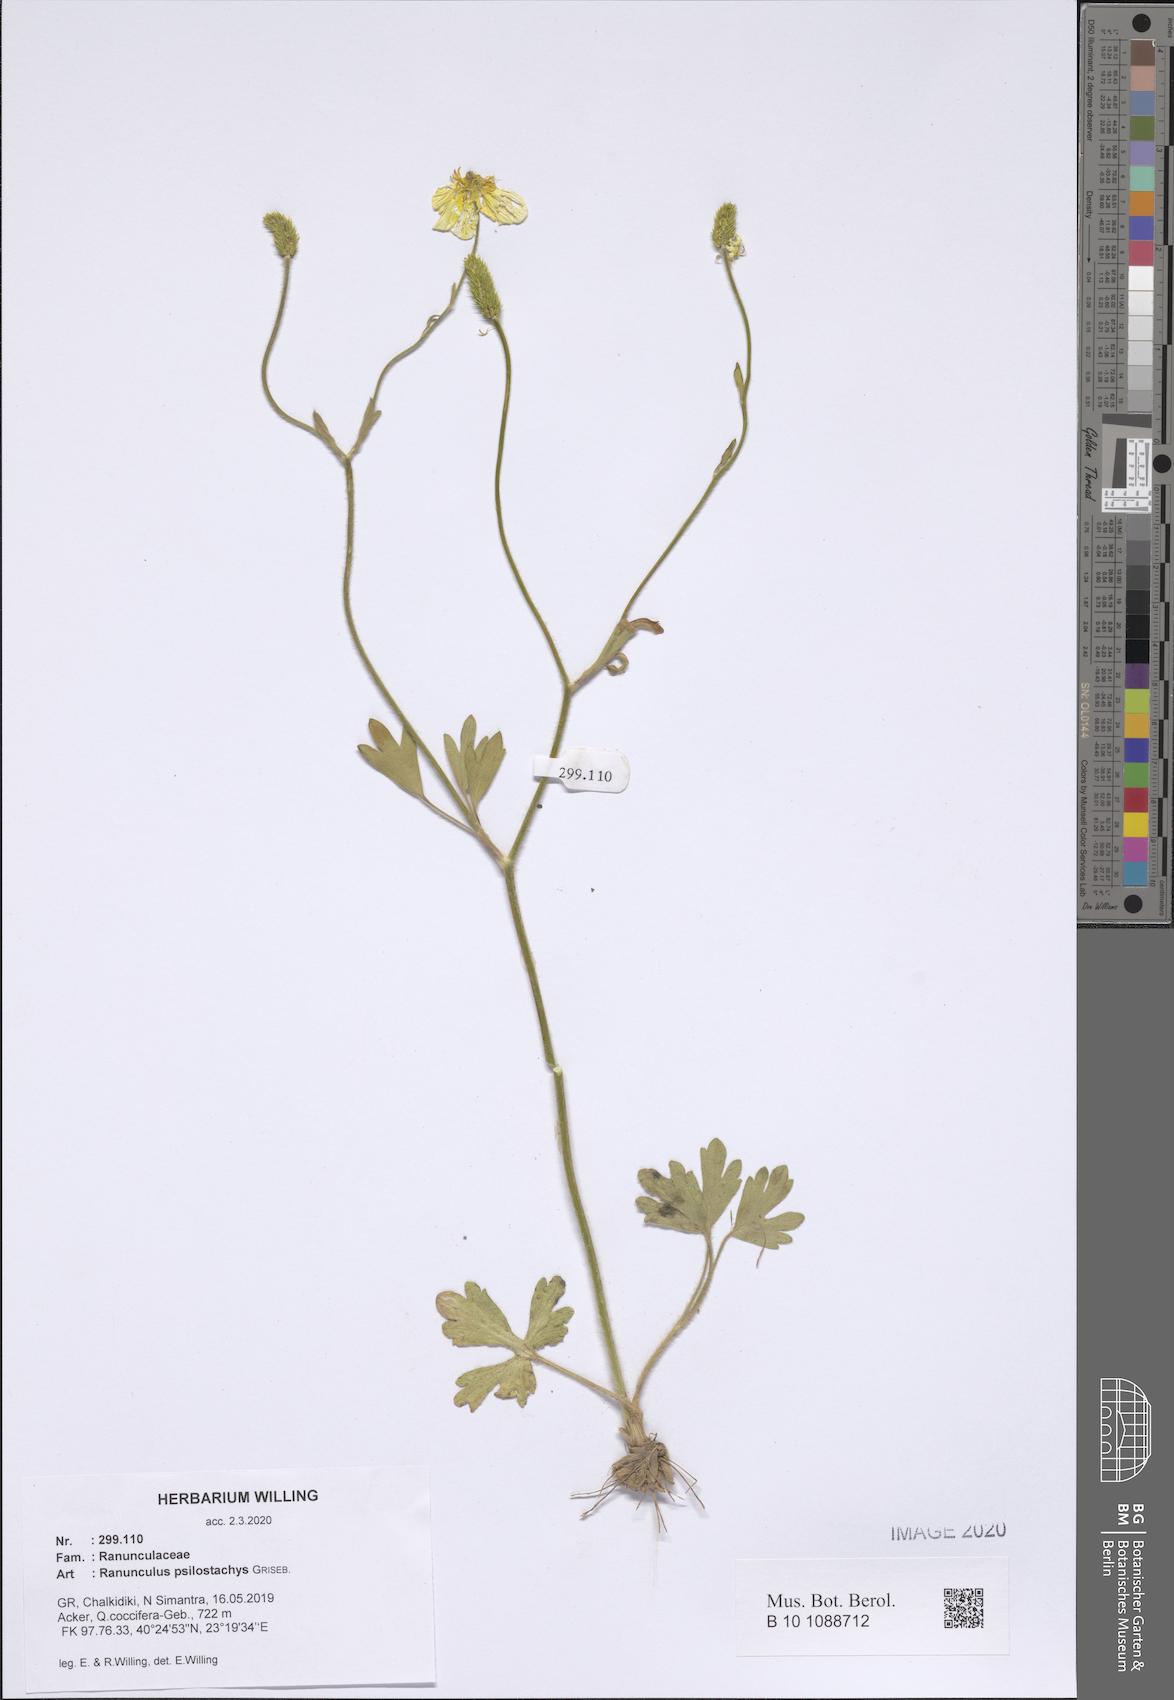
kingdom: Plantae
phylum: Tracheophyta
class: Magnoliopsida
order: Ranunculales
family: Ranunculaceae
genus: Ranunculus
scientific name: Ranunculus psilostachys
